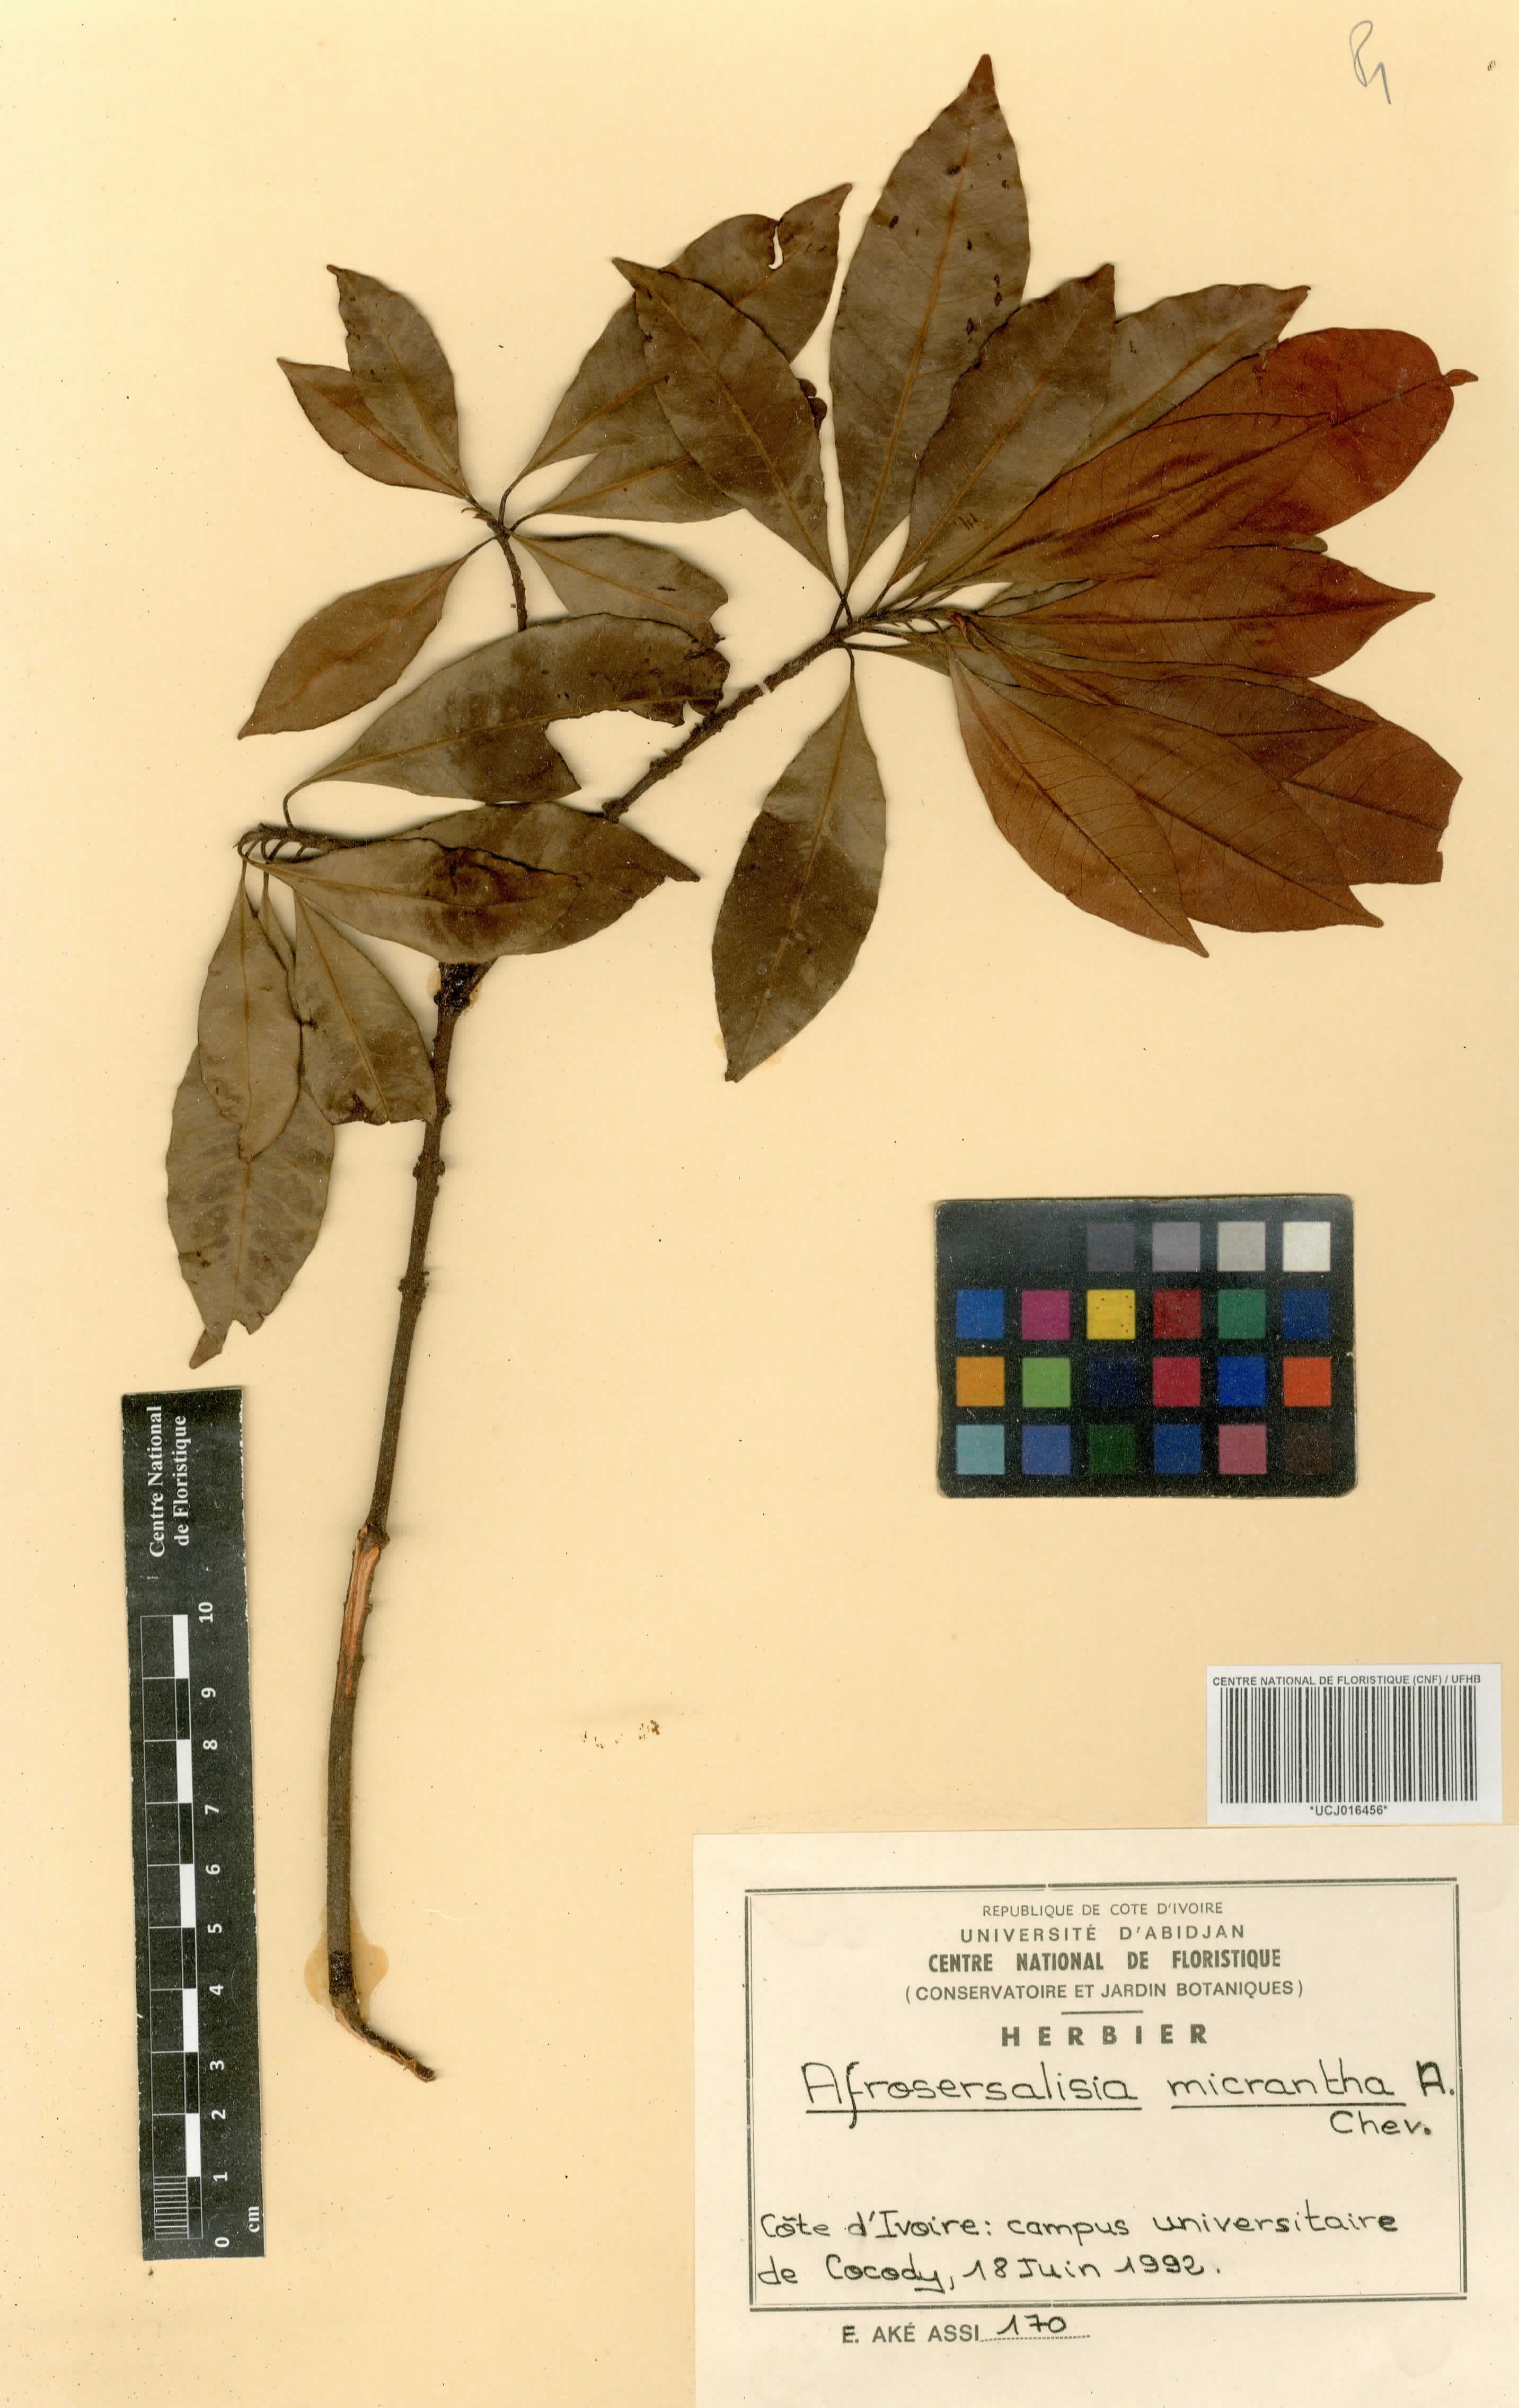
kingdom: Plantae
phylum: Tracheophyta
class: Magnoliopsida
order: Ericales
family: Sapotaceae
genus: Synsepalum
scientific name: Synsepalum afzelii
